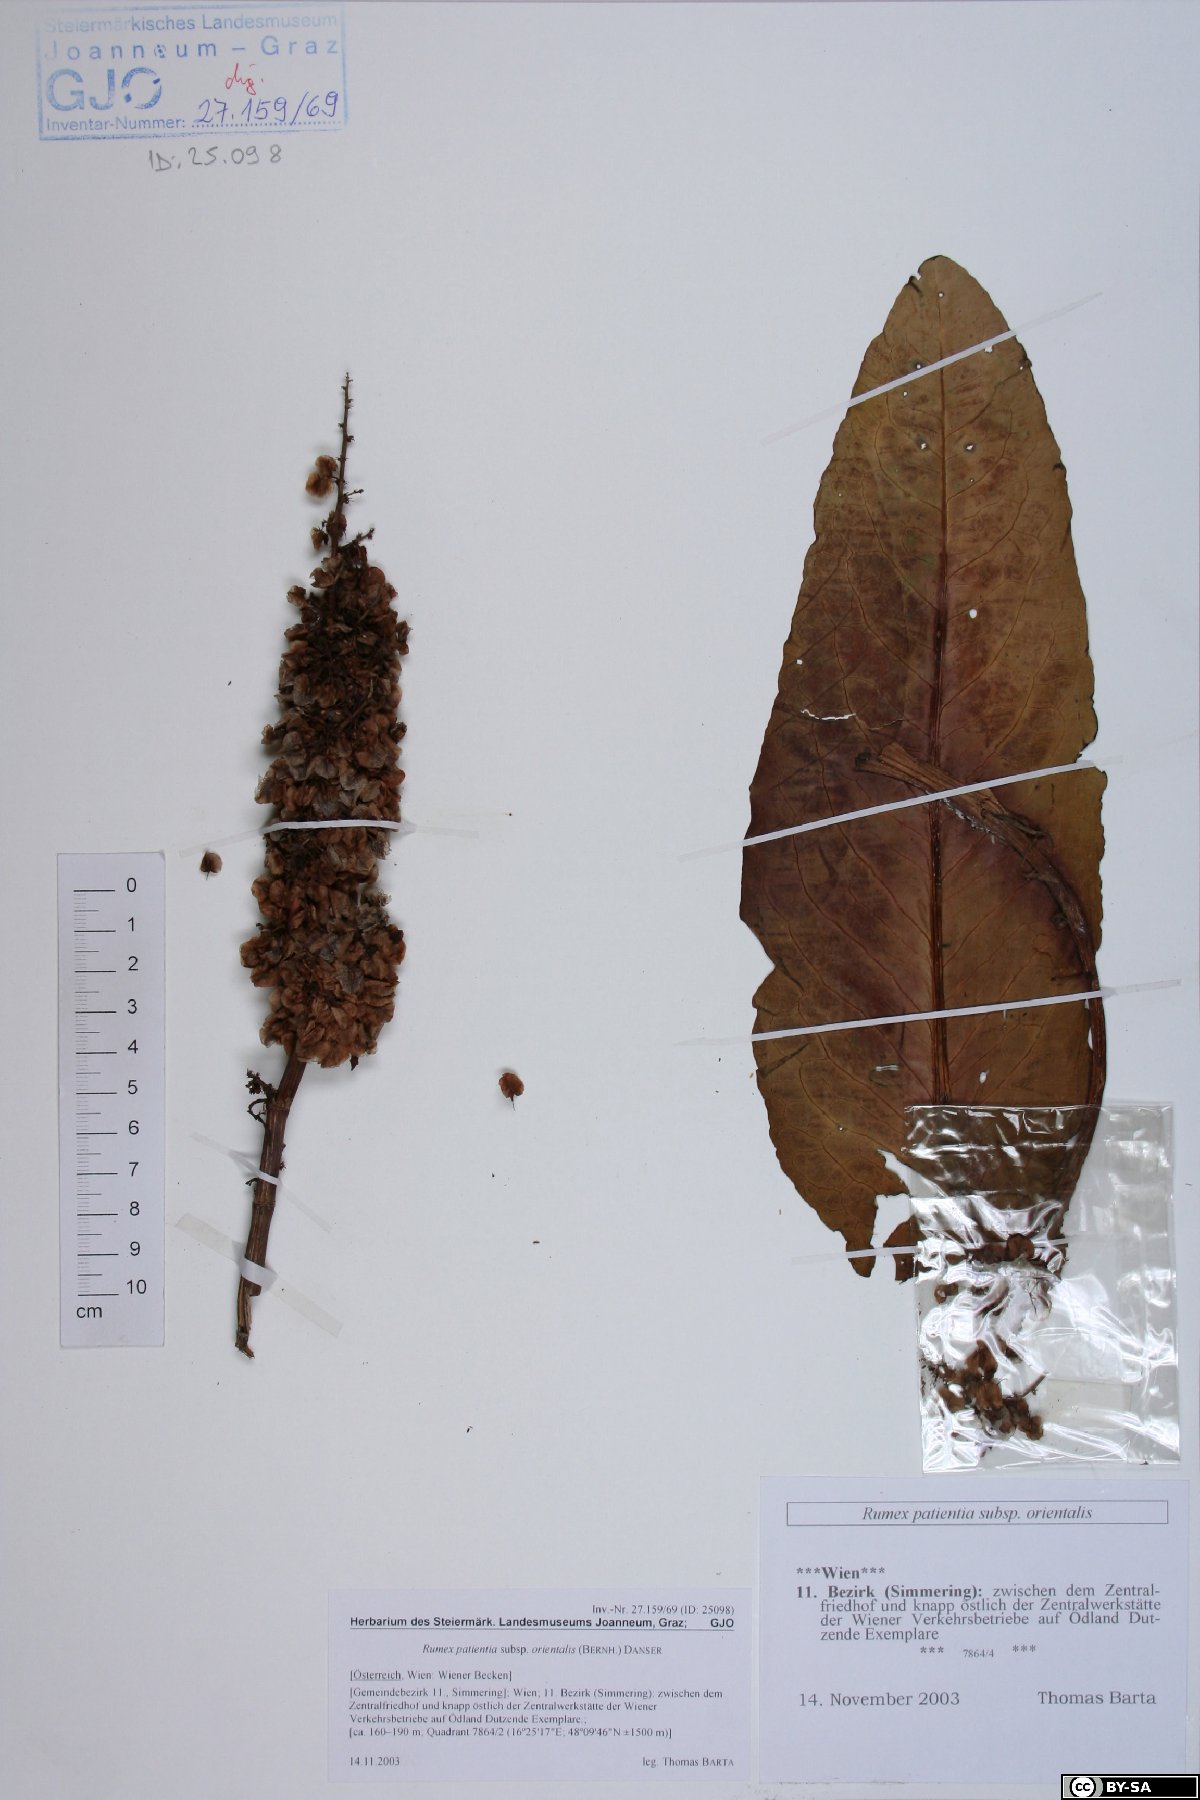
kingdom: Plantae
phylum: Tracheophyta
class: Magnoliopsida
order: Caryophyllales
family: Polygonaceae
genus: Rumex
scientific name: Rumex patientia
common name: Patience dock
